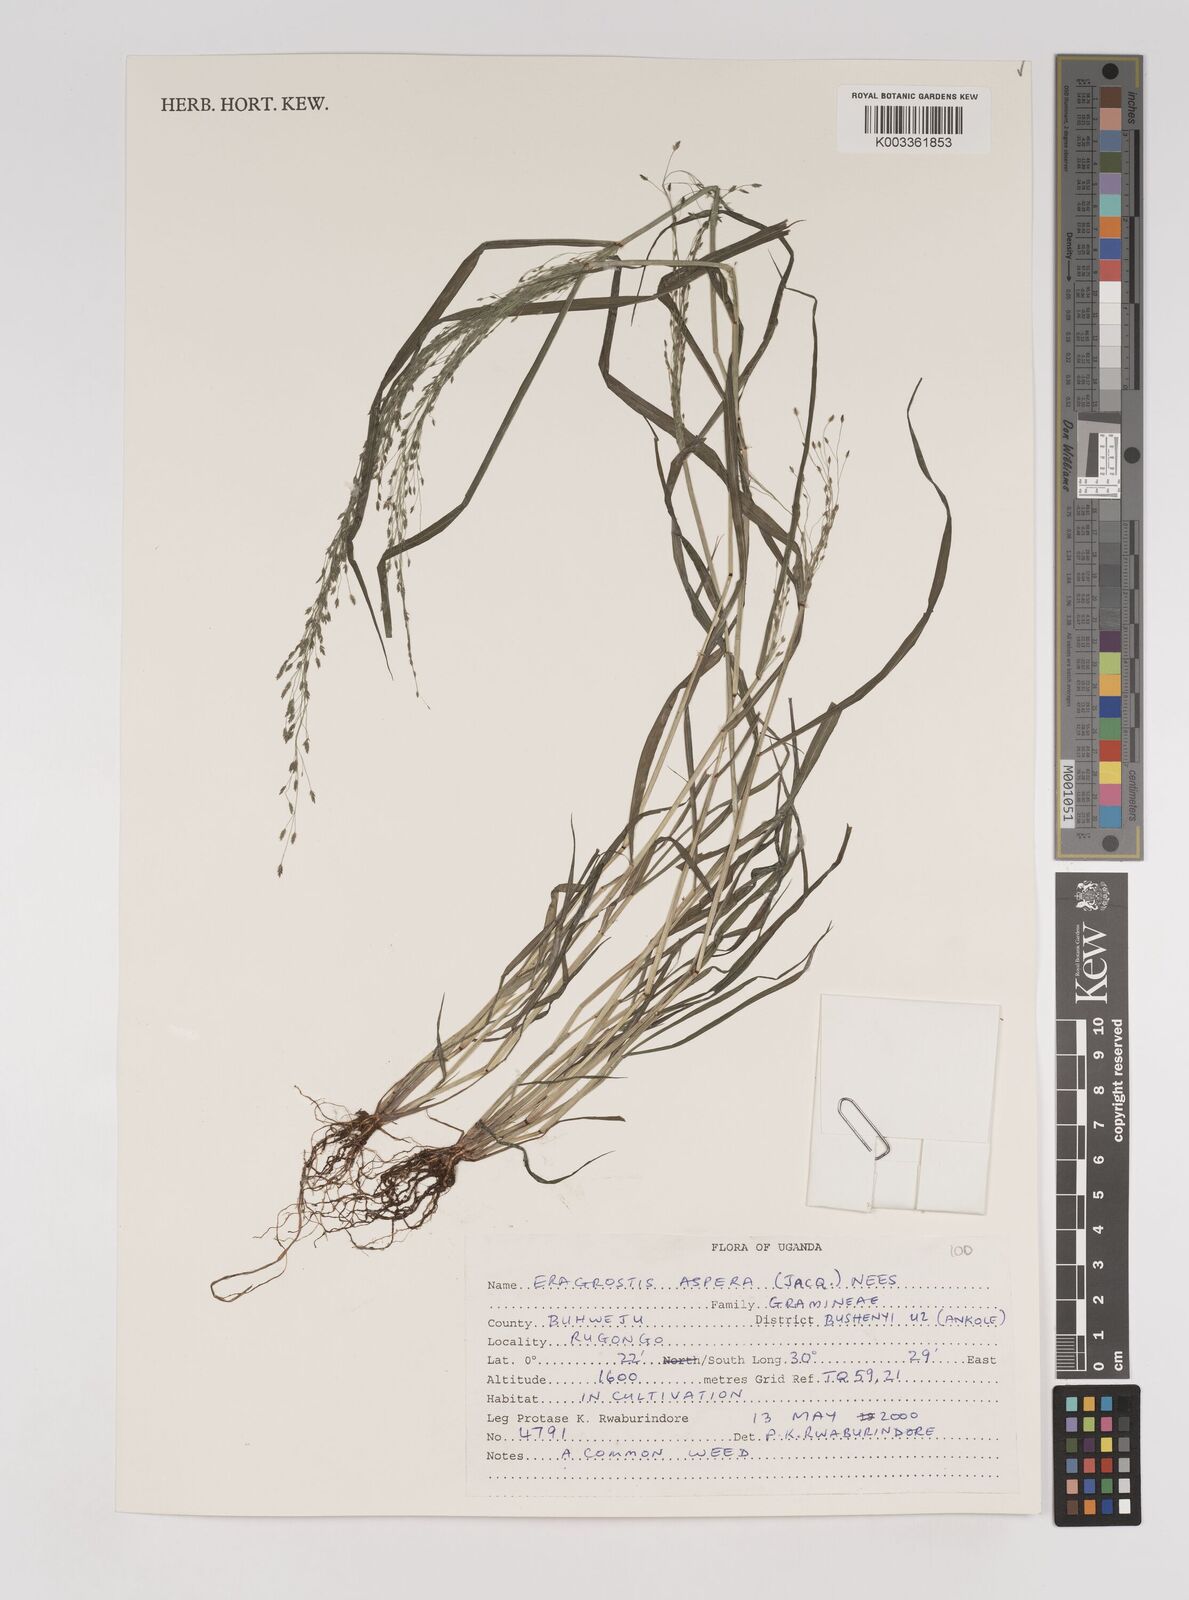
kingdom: Plantae
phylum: Tracheophyta
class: Liliopsida
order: Poales
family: Poaceae
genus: Eragrostis
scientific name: Eragrostis aspera
